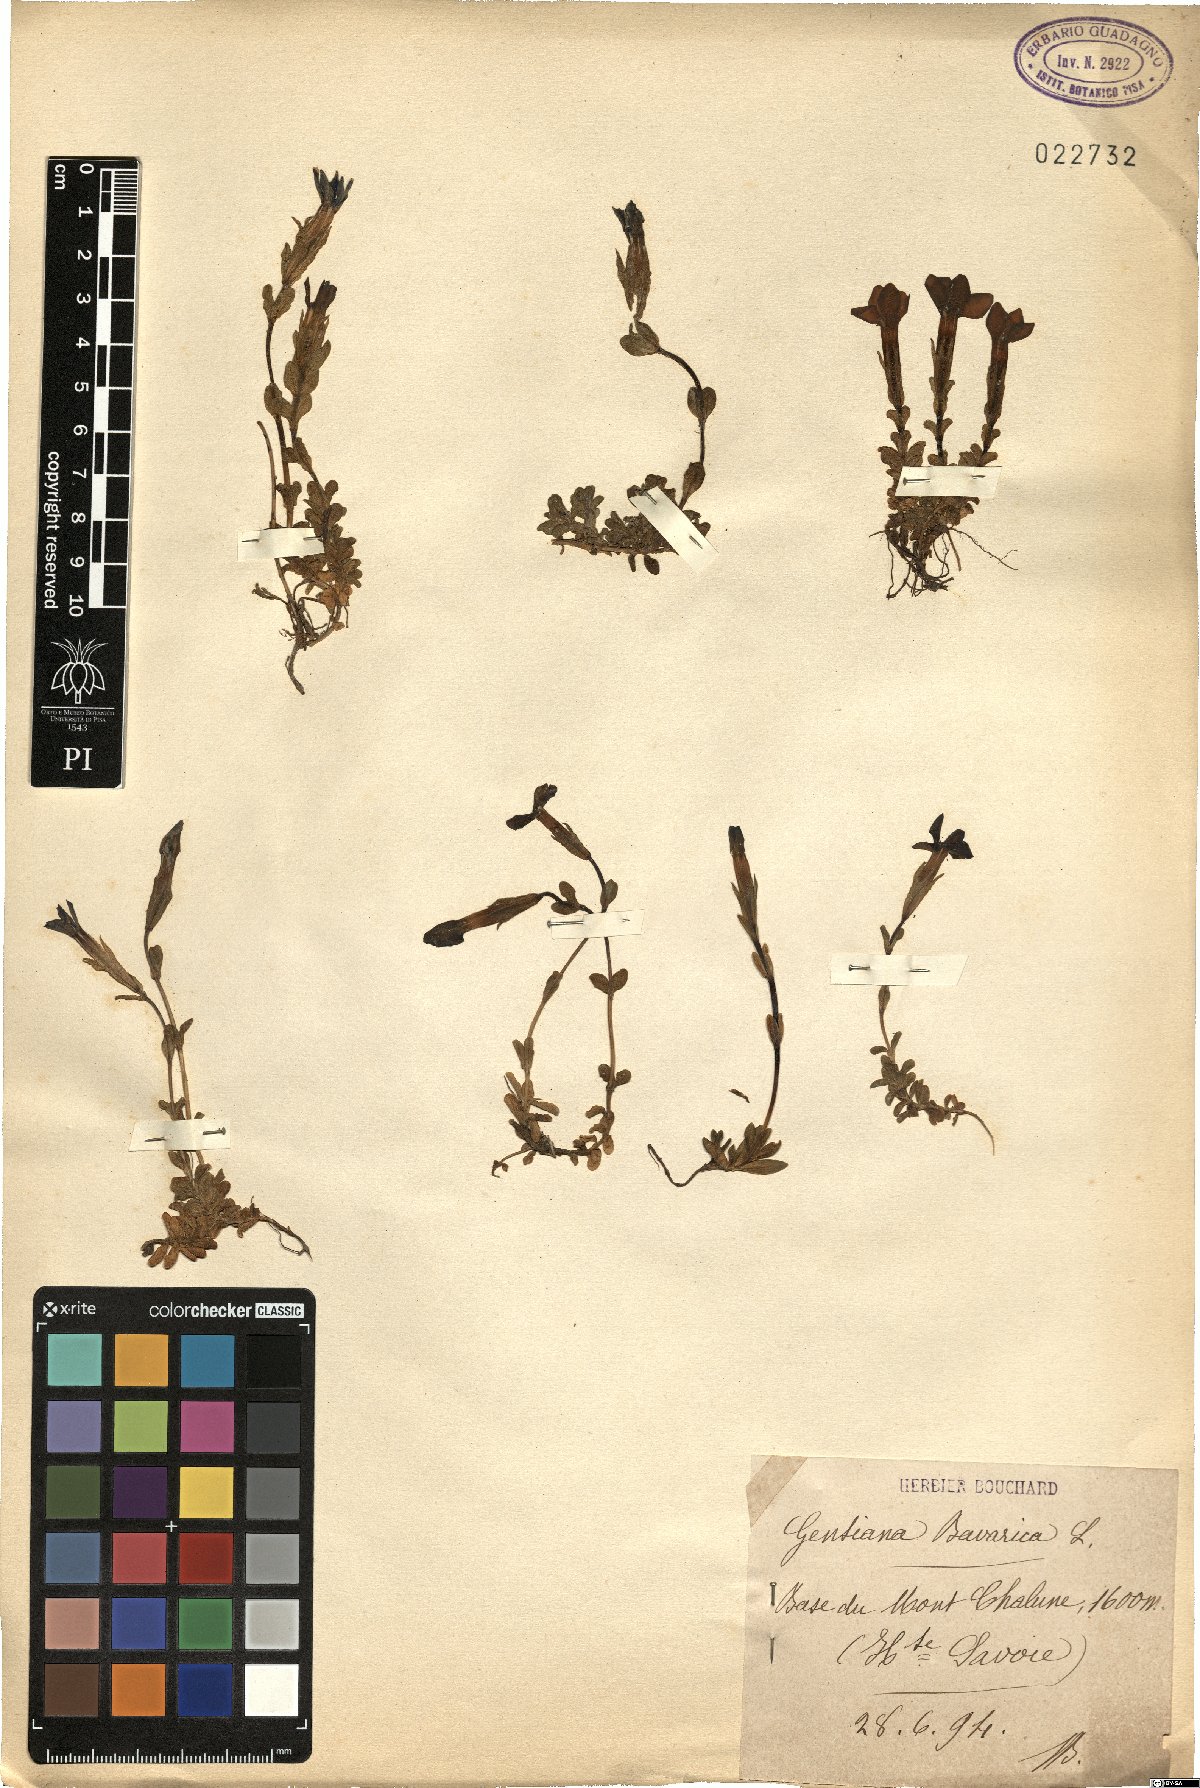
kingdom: Plantae
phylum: Tracheophyta
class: Magnoliopsida
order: Gentianales
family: Gentianaceae
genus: Gentiana
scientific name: Gentiana bavarica
